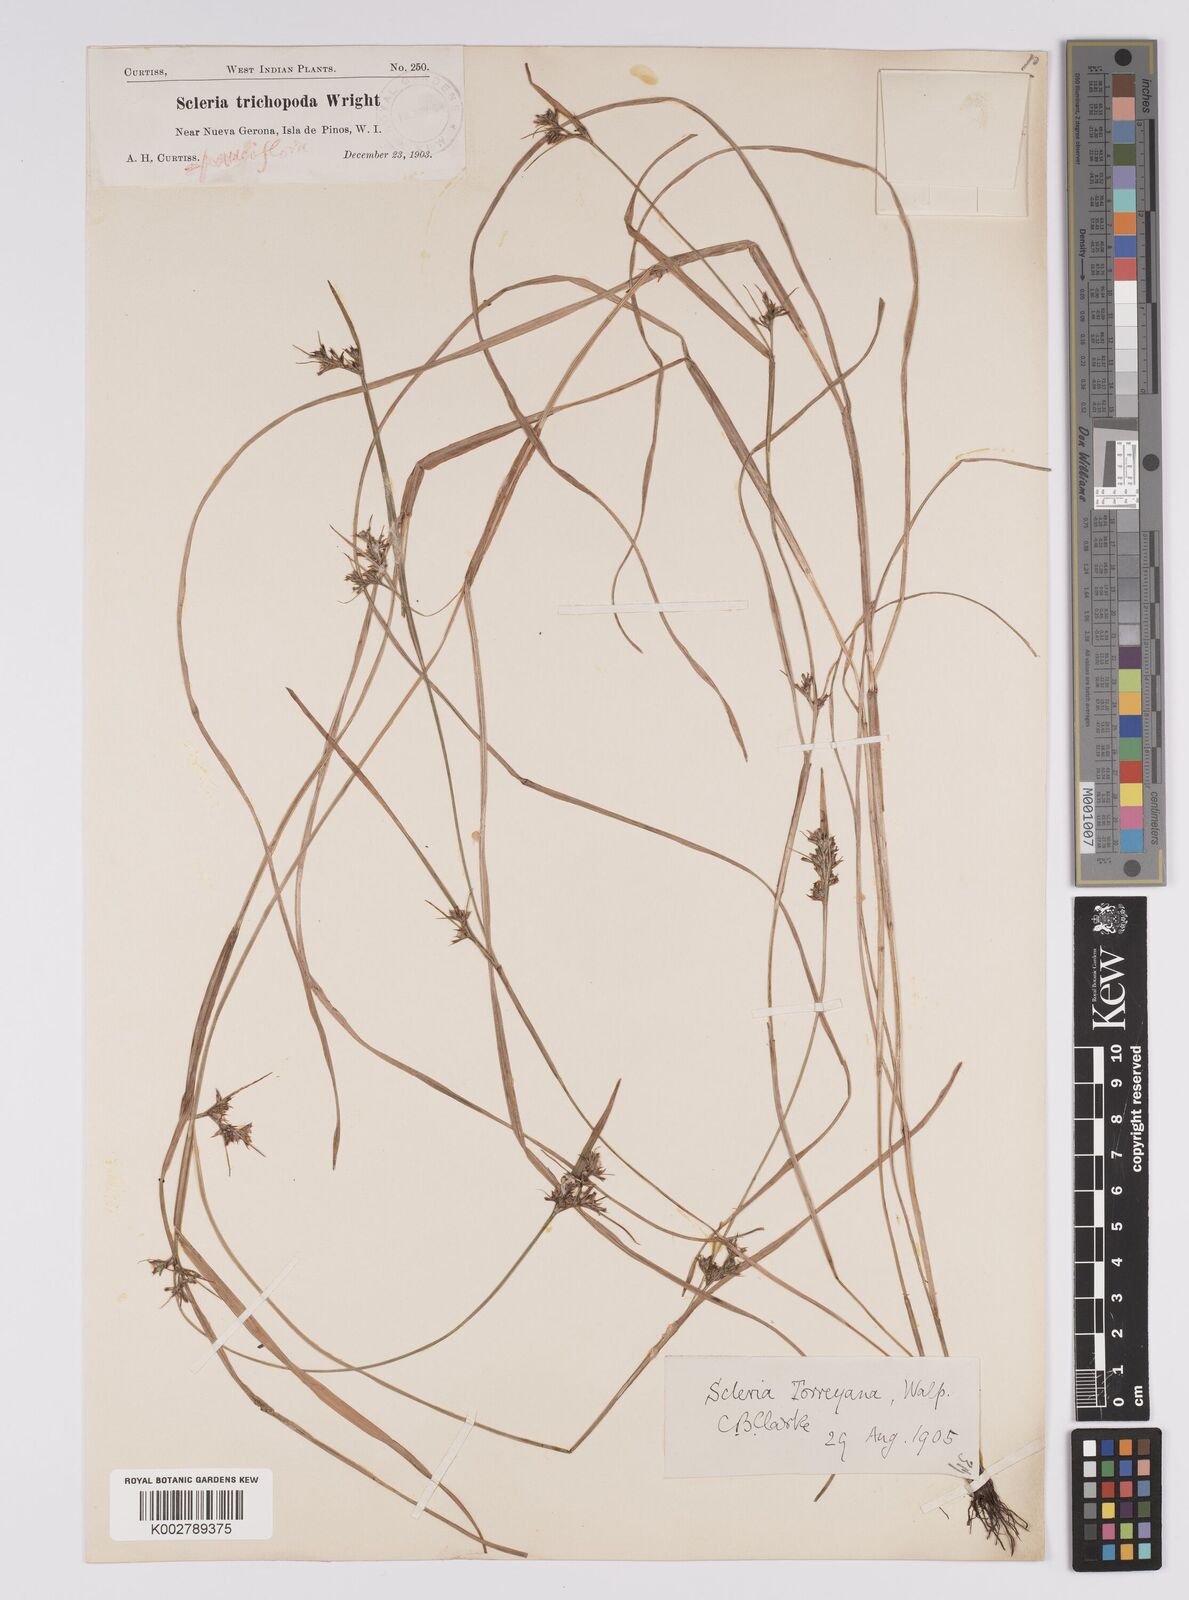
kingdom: Plantae
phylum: Tracheophyta
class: Liliopsida
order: Poales
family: Cyperaceae
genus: Scleria
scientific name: Scleria muehlenbergii
